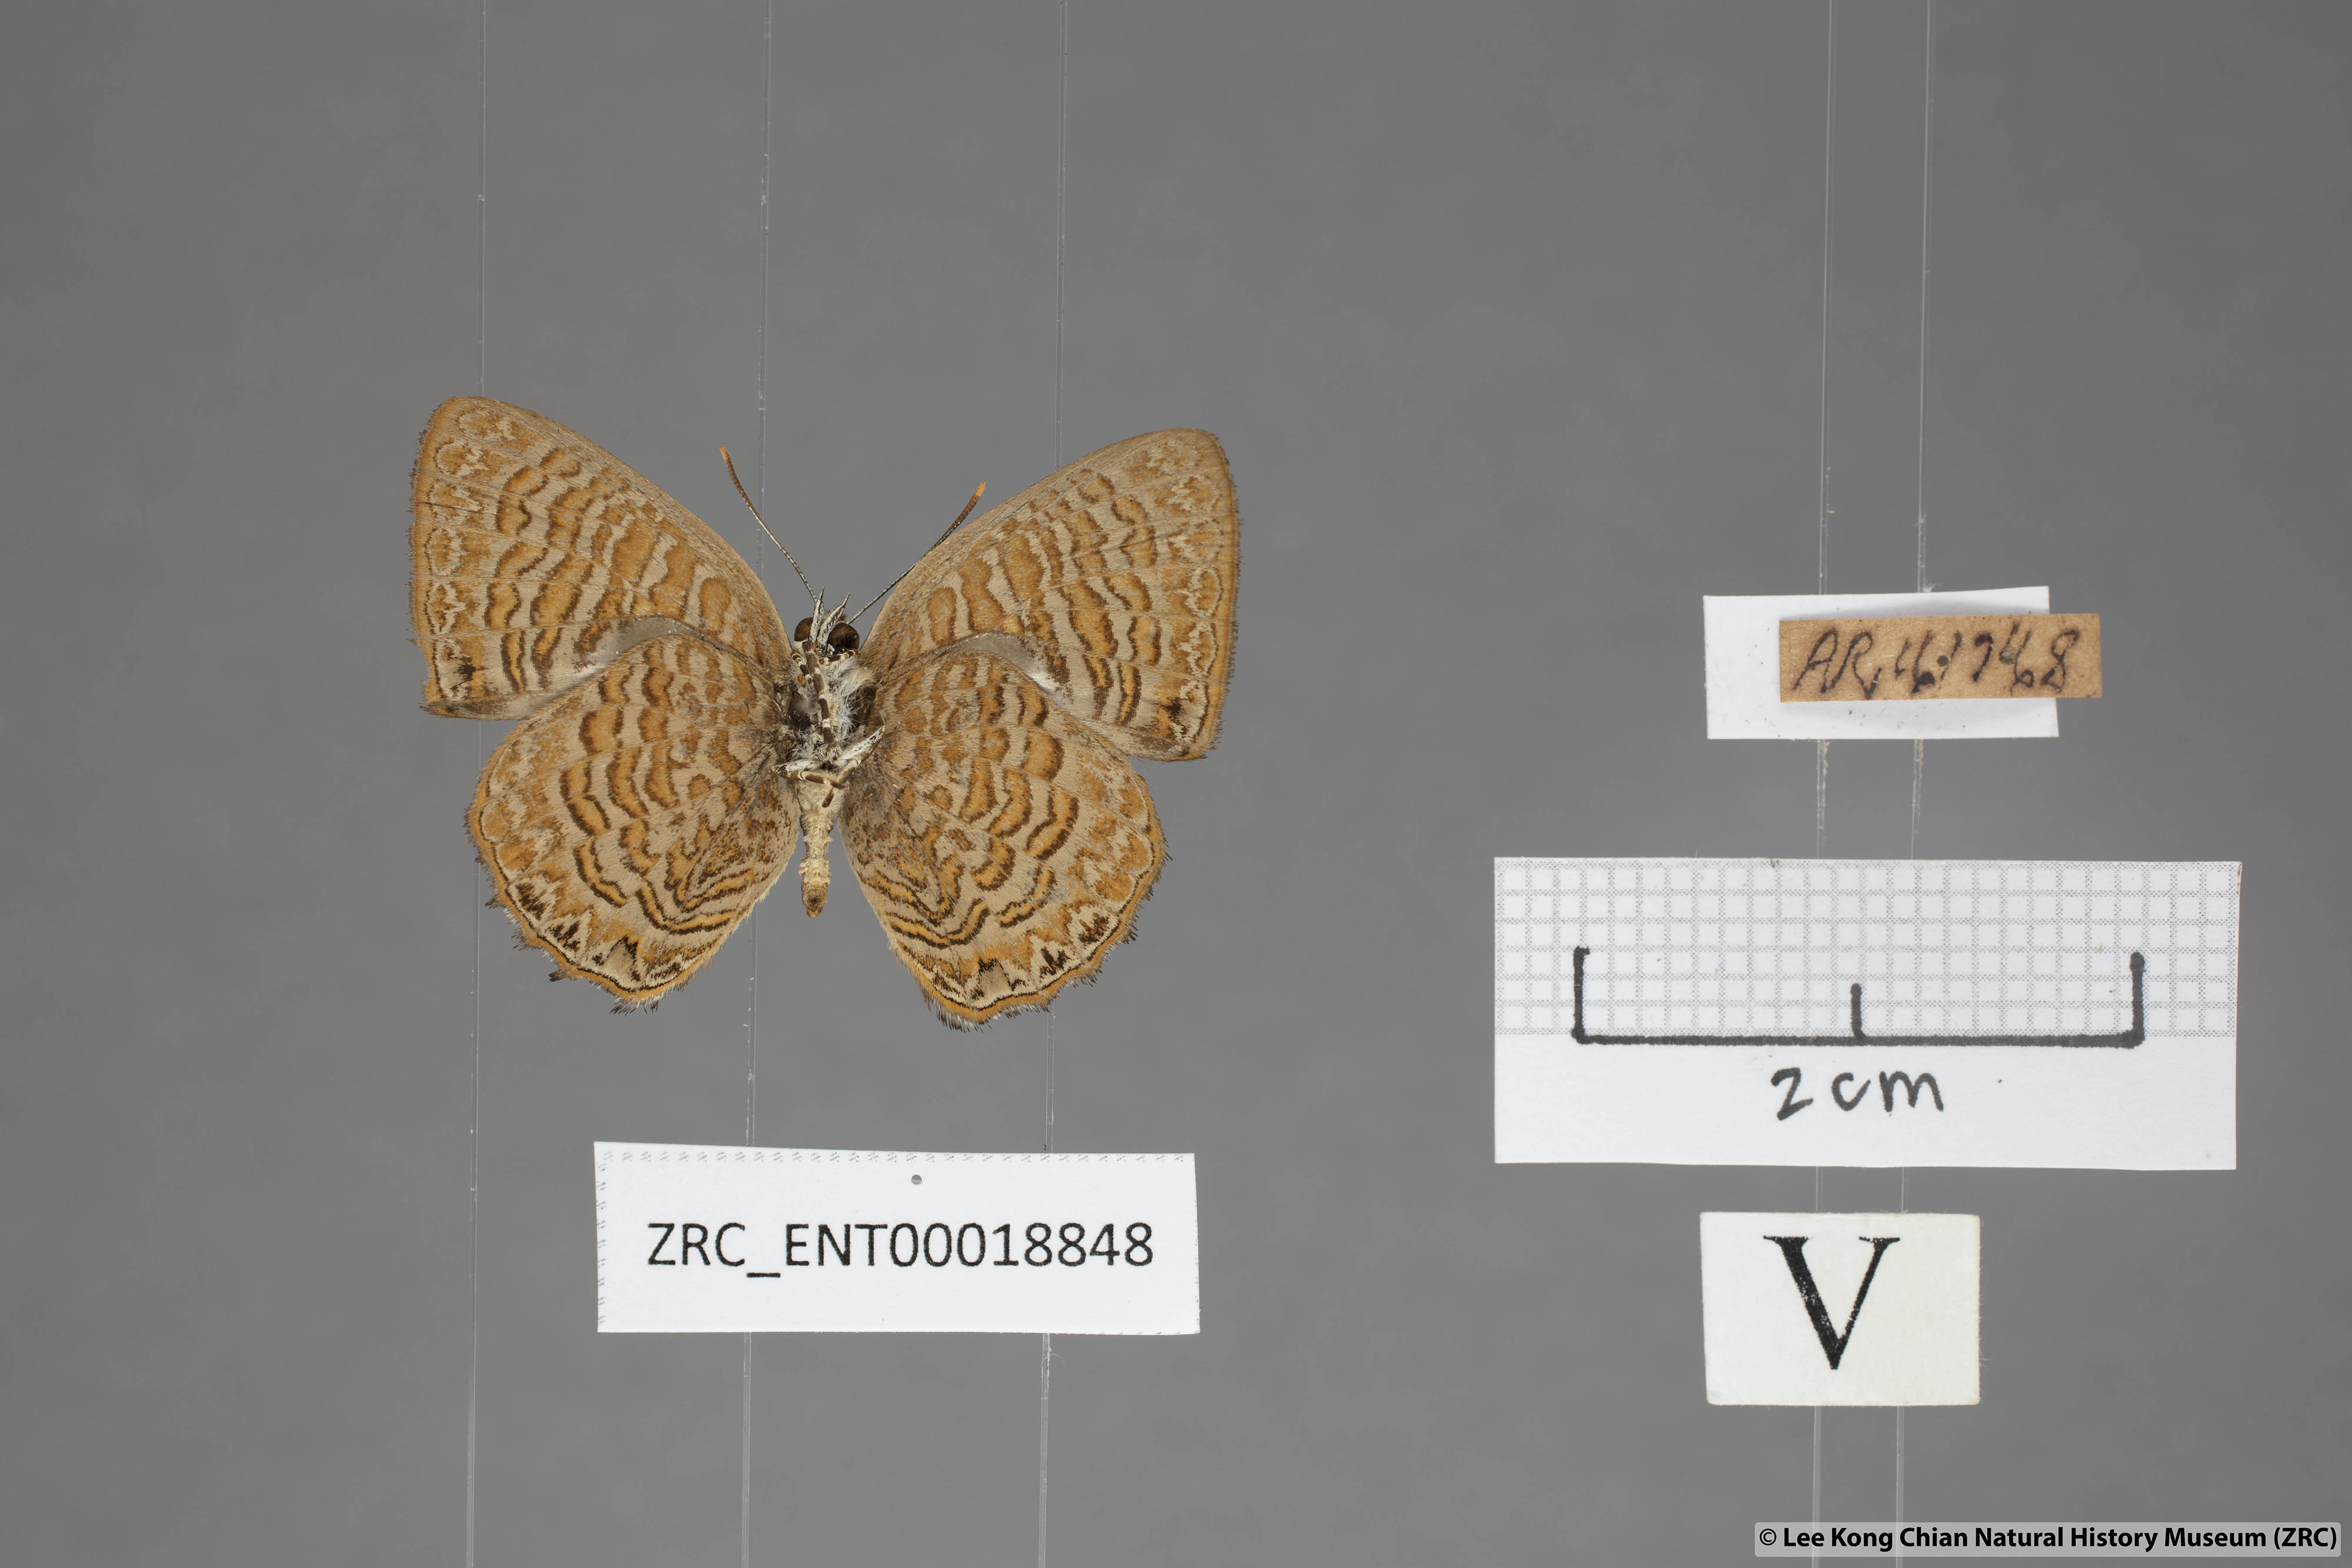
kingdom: Animalia
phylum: Arthropoda
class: Insecta
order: Lepidoptera
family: Lycaenidae
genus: Poritia
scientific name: Poritia sumatrae
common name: Sumatran gem
